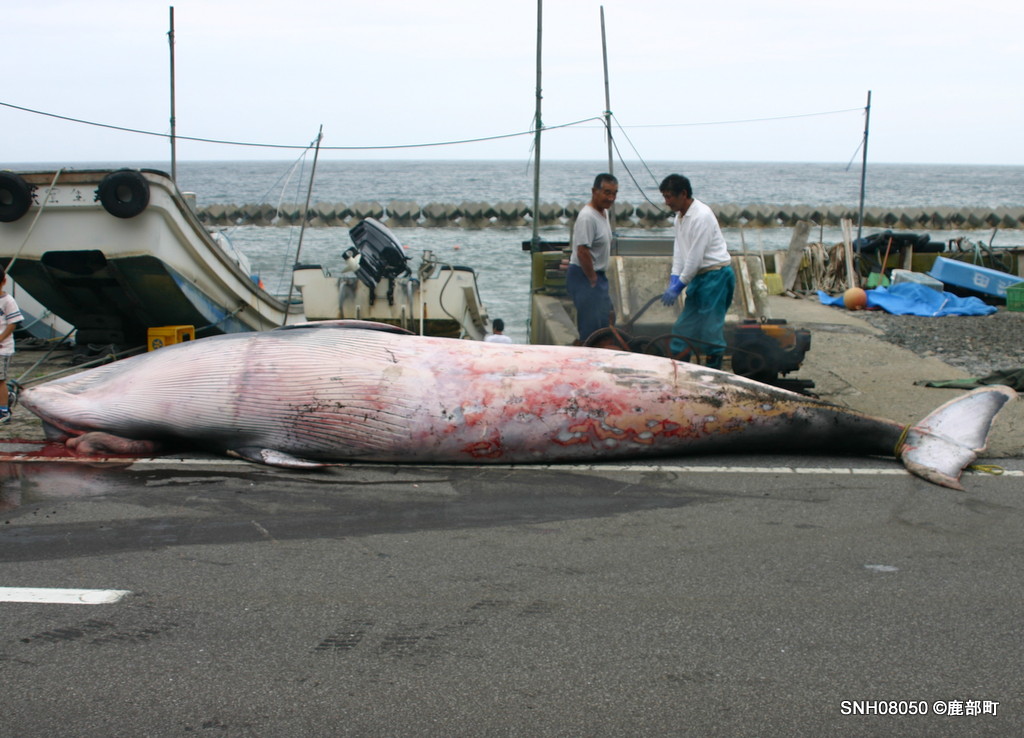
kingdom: Animalia
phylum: Chordata
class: Mammalia
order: Cetacea
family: Balaenopteridae
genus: Balaenoptera
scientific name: Balaenoptera acutorostrata
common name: Minke whale
